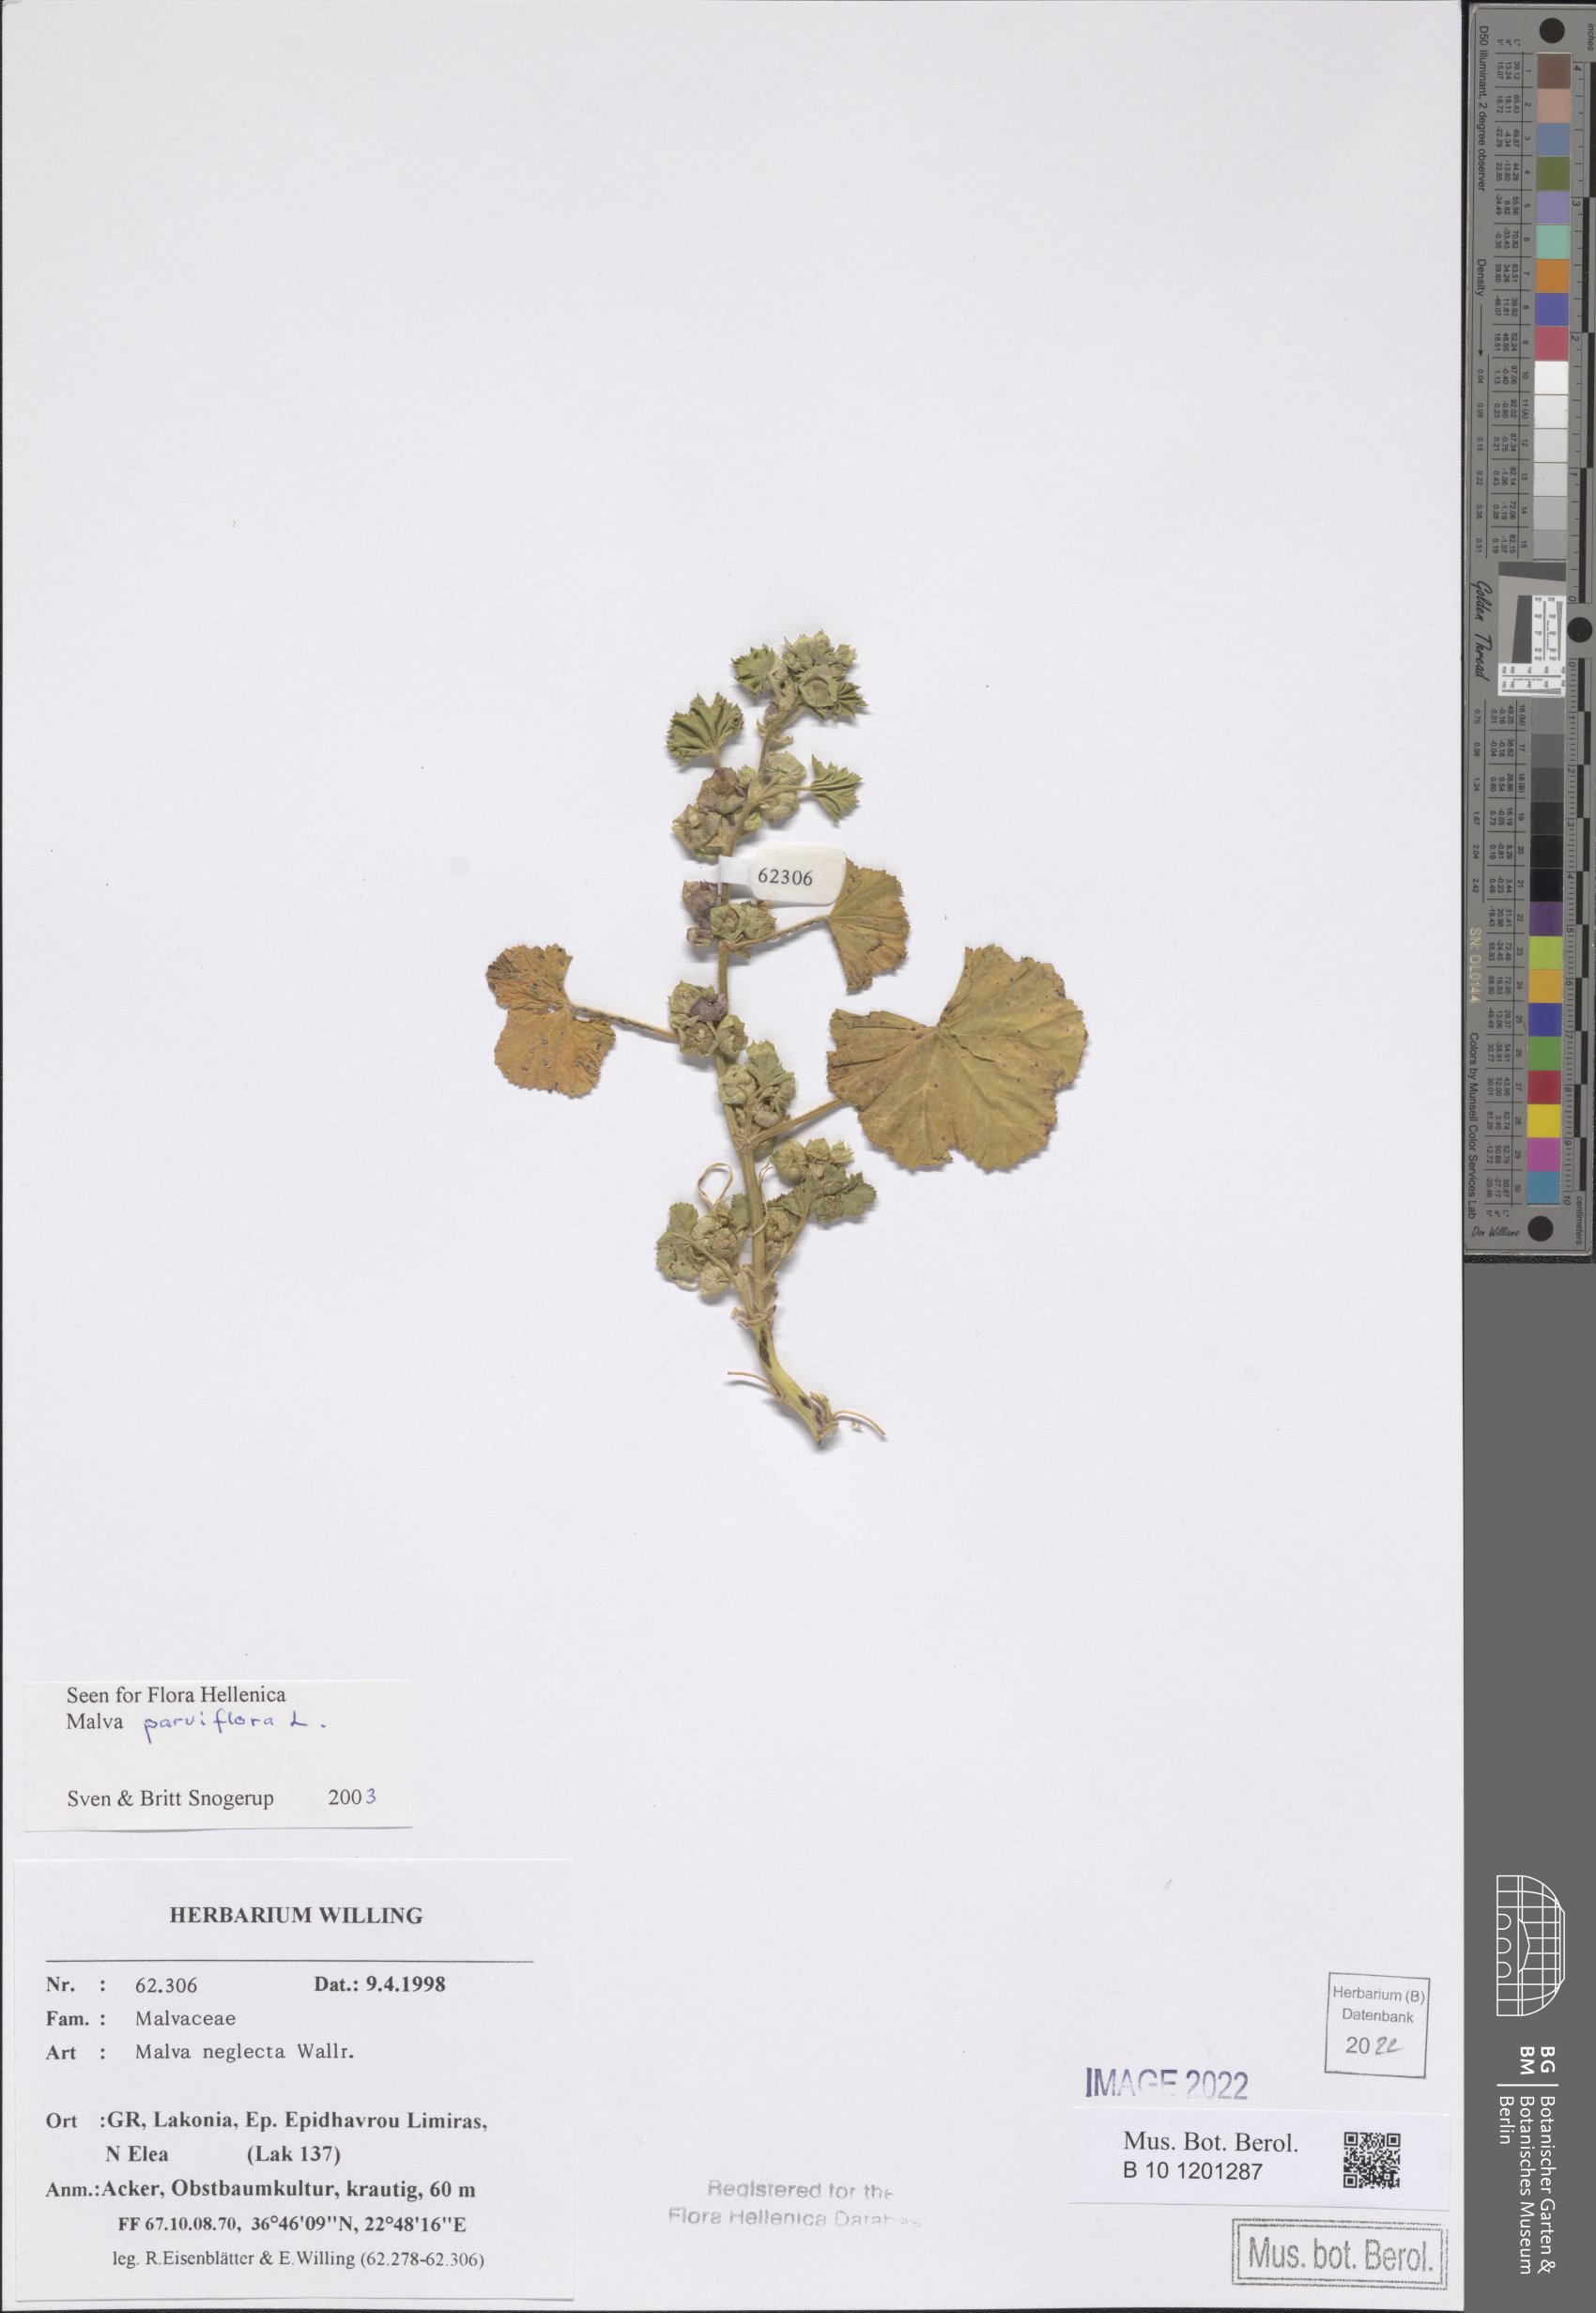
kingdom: Plantae
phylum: Tracheophyta
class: Magnoliopsida
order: Malvales
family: Malvaceae
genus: Malva
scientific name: Malva parviflora
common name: Least mallow
